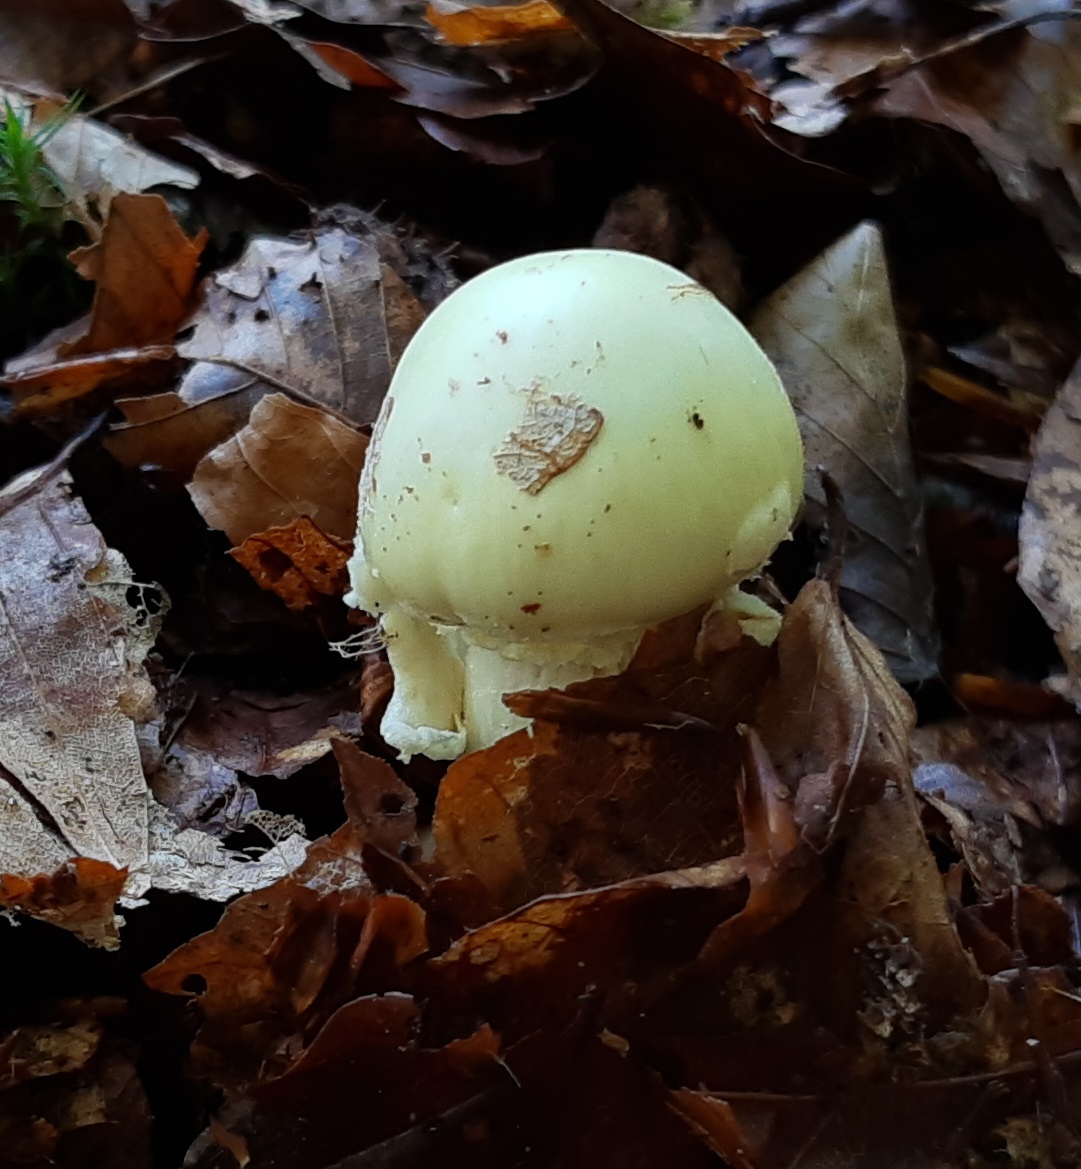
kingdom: Fungi
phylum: Basidiomycota
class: Agaricomycetes
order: Agaricales
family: Amanitaceae
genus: Amanita
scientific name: Amanita citrina
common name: kugleknoldet fluesvamp
